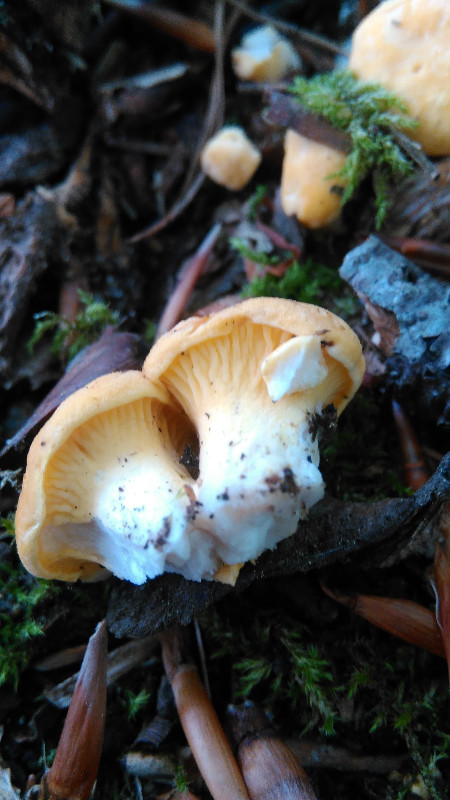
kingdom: Fungi
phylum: Basidiomycota
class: Agaricomycetes
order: Cantharellales
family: Hydnaceae
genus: Cantharellus
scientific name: Cantharellus cibarius
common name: almindelig kantarel
